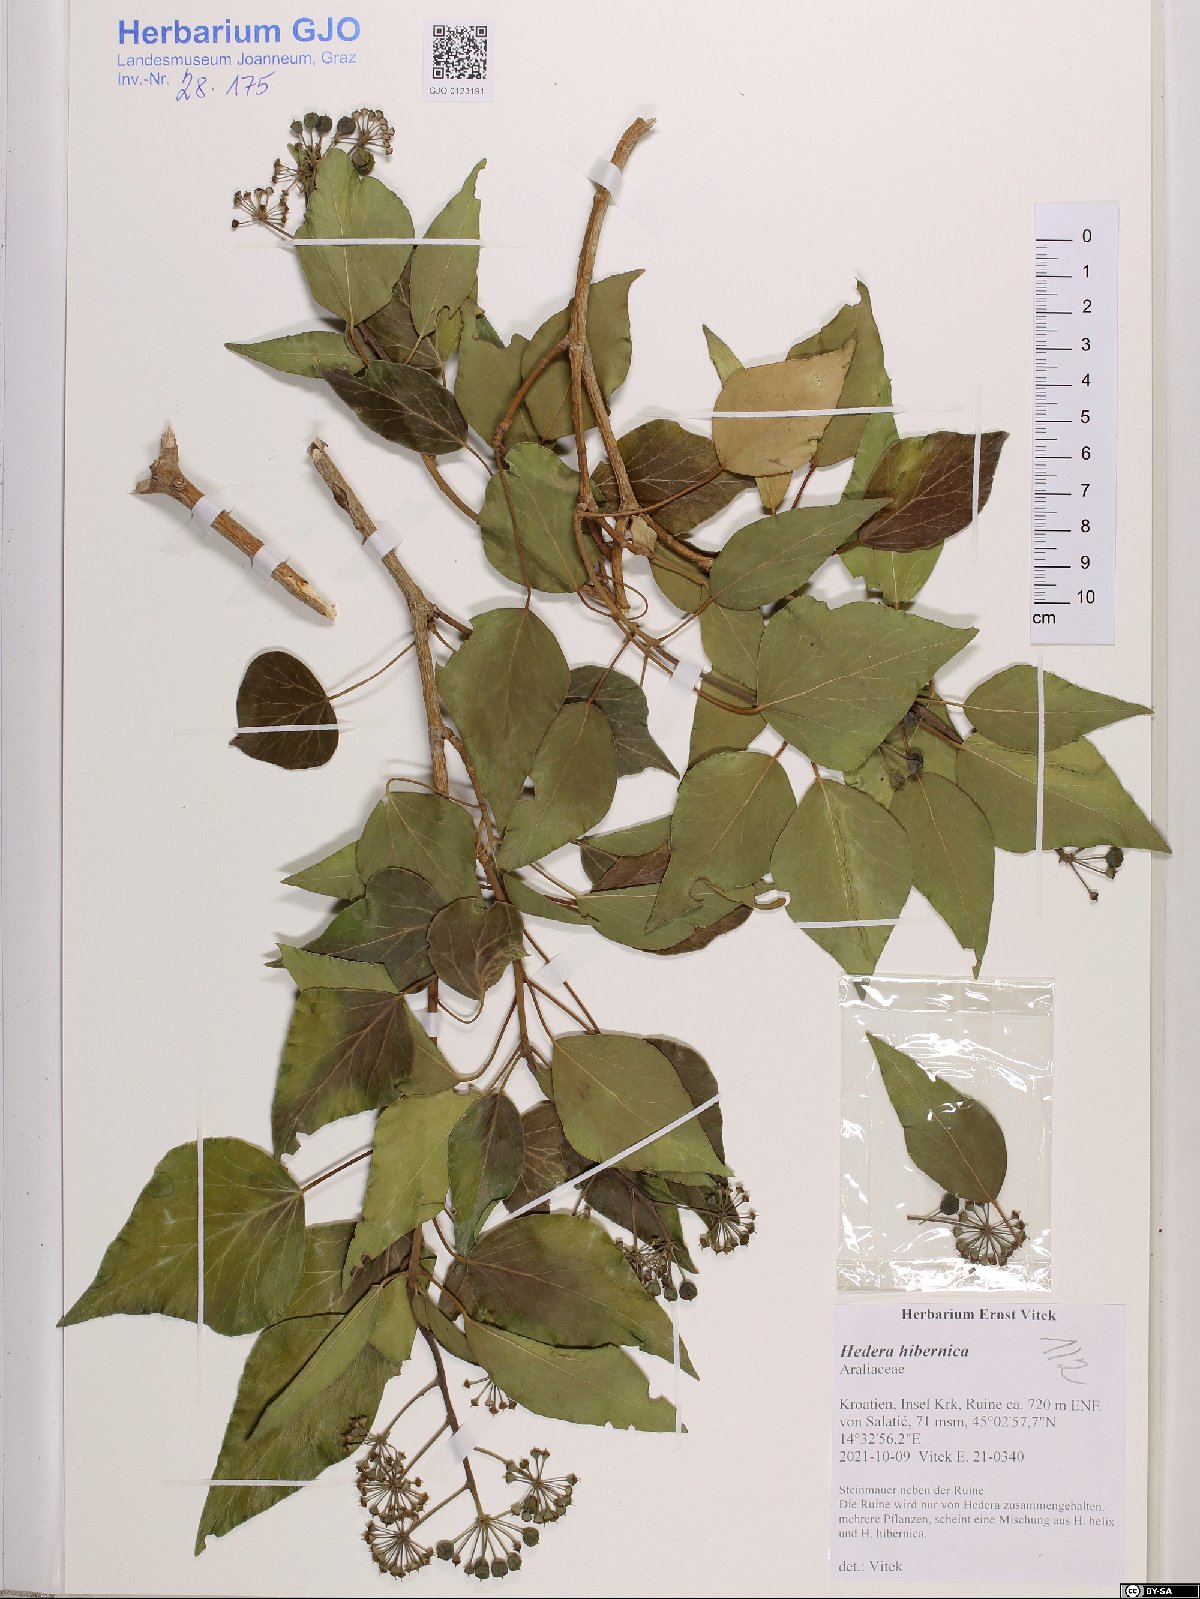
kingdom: Plantae
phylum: Tracheophyta
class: Magnoliopsida
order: Apiales
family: Araliaceae
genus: Hedera
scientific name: Hedera hibernica
